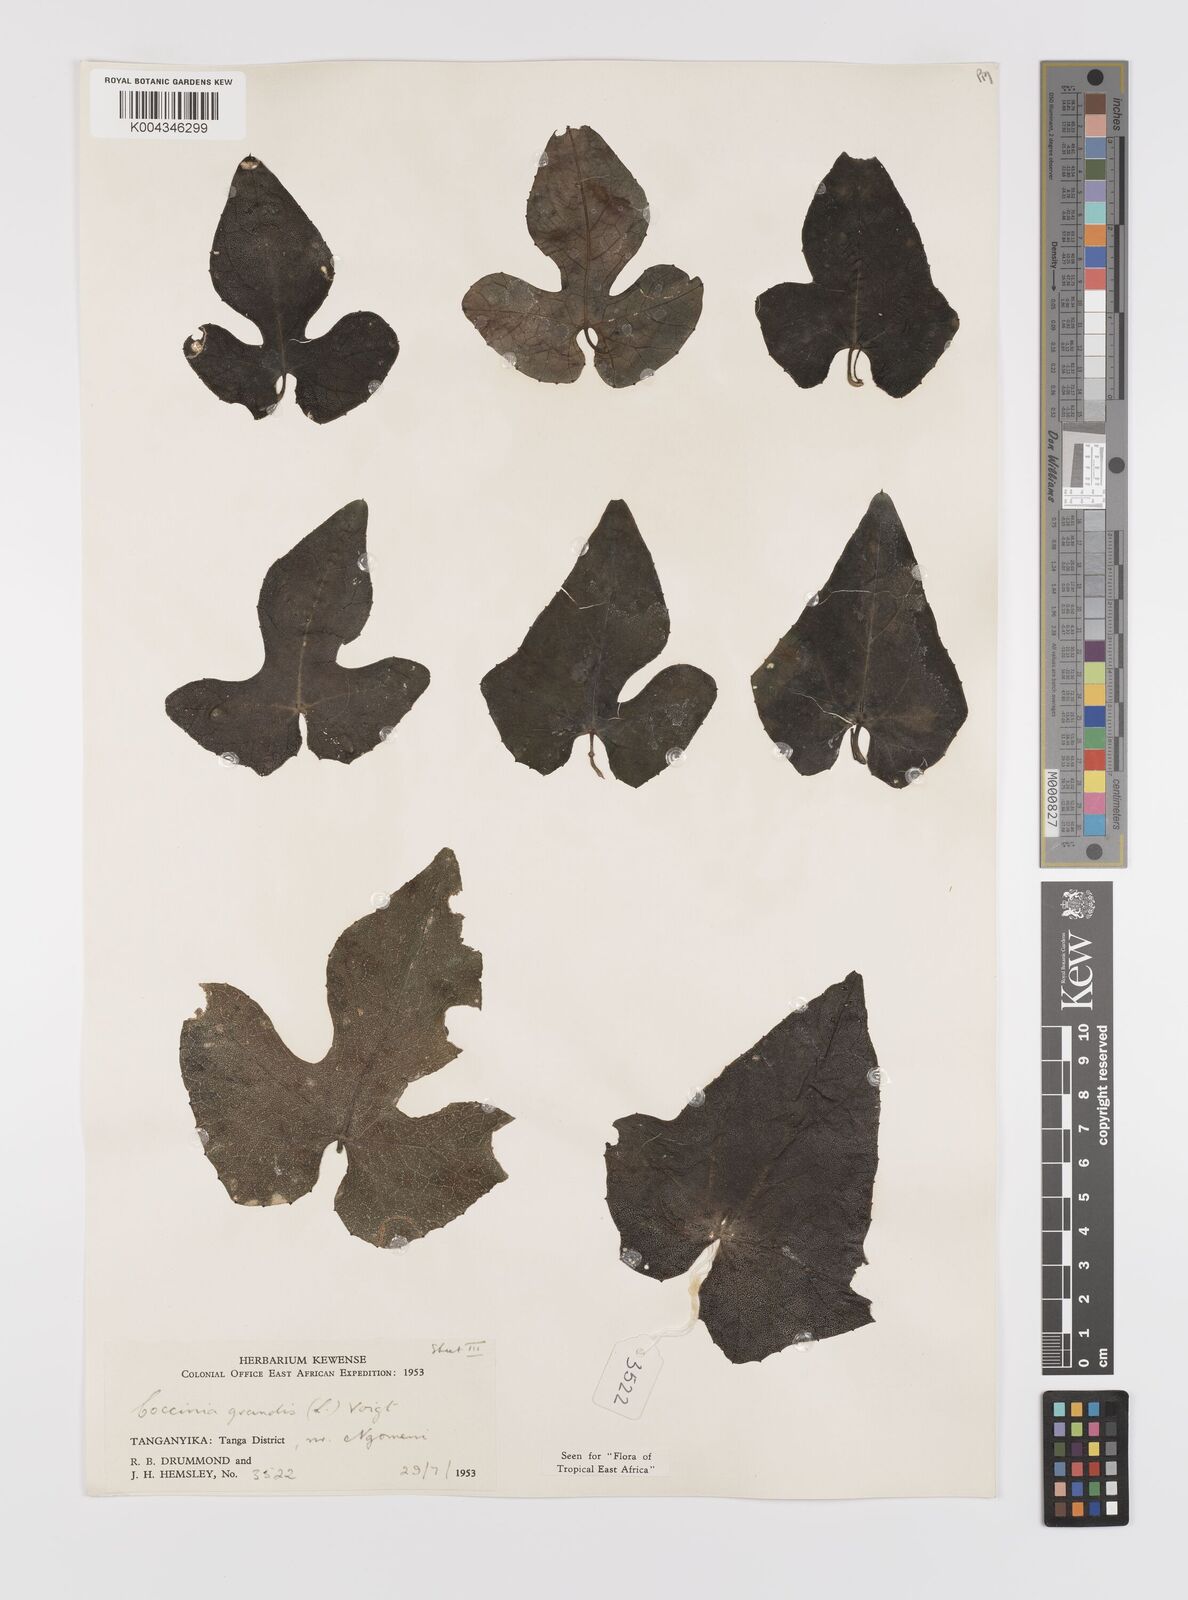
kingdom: Plantae
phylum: Tracheophyta
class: Magnoliopsida
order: Cucurbitales
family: Cucurbitaceae
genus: Coccinia
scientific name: Coccinia grandis
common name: Ivy gourd
